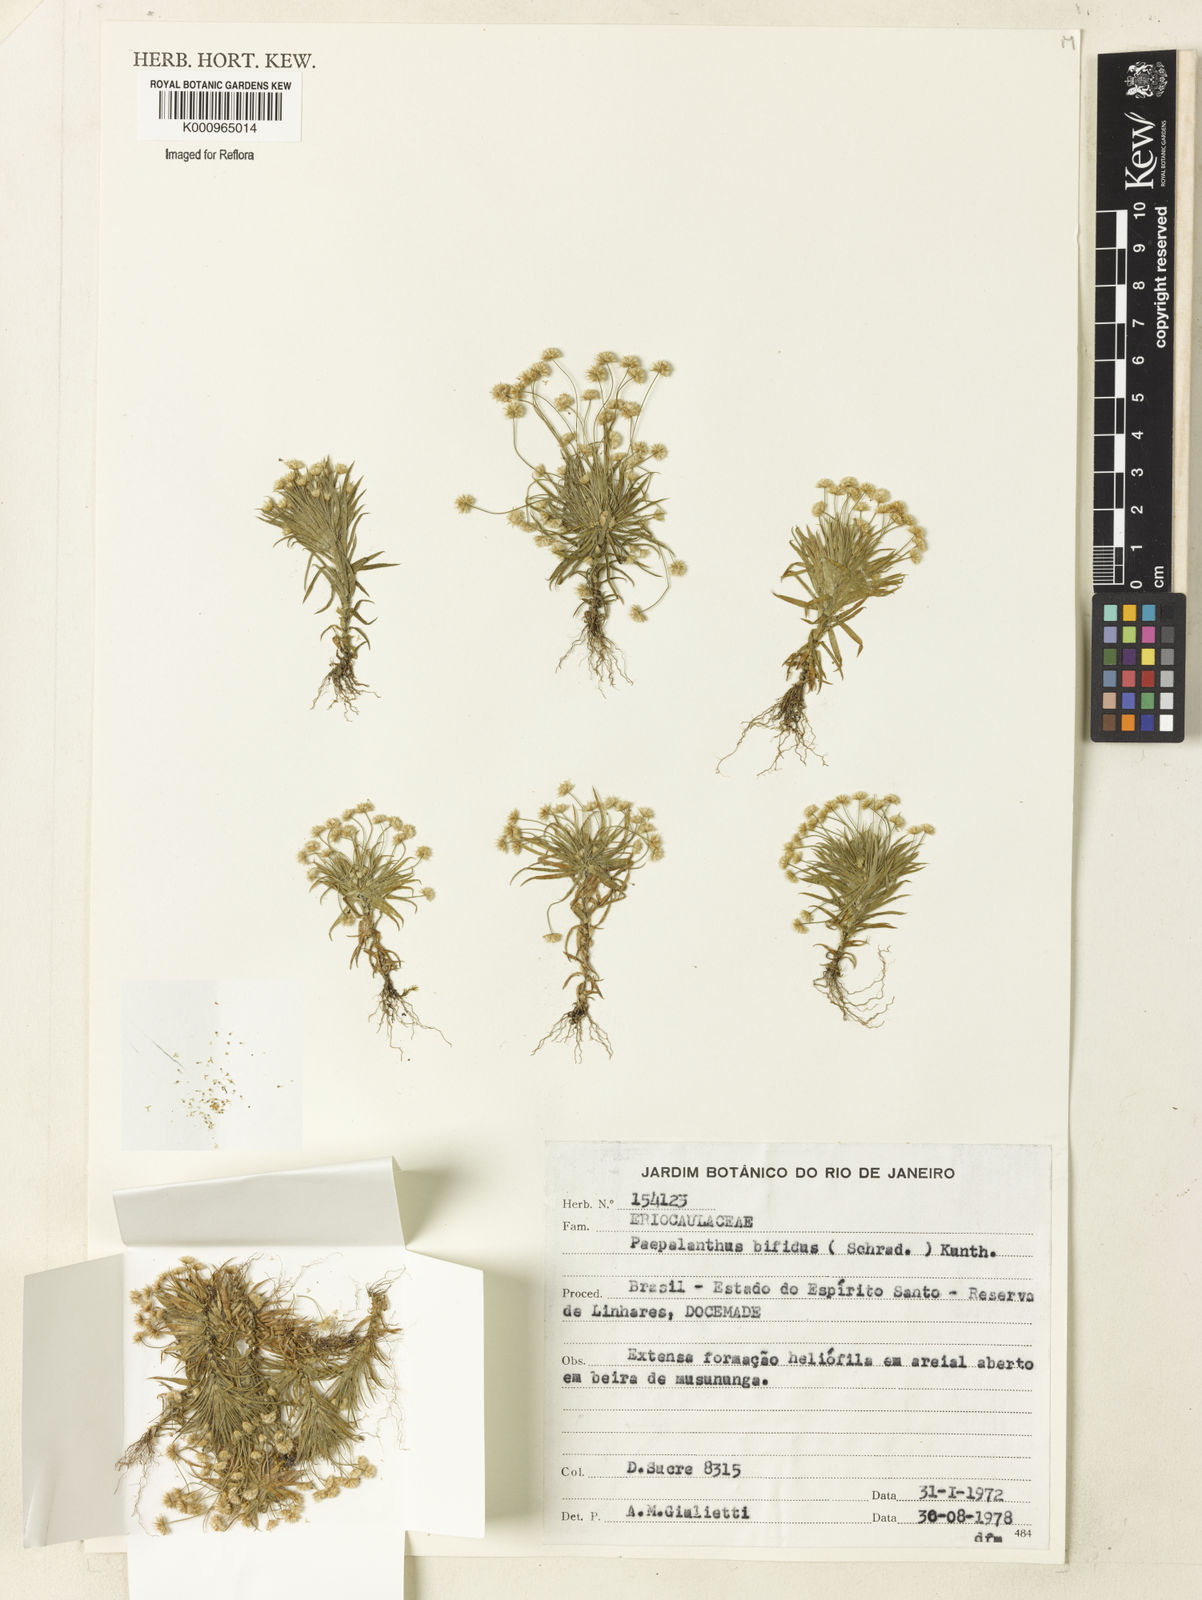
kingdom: Plantae
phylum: Tracheophyta
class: Liliopsida
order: Poales
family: Eriocaulaceae
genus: Paepalanthus
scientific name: Paepalanthus bifidus
